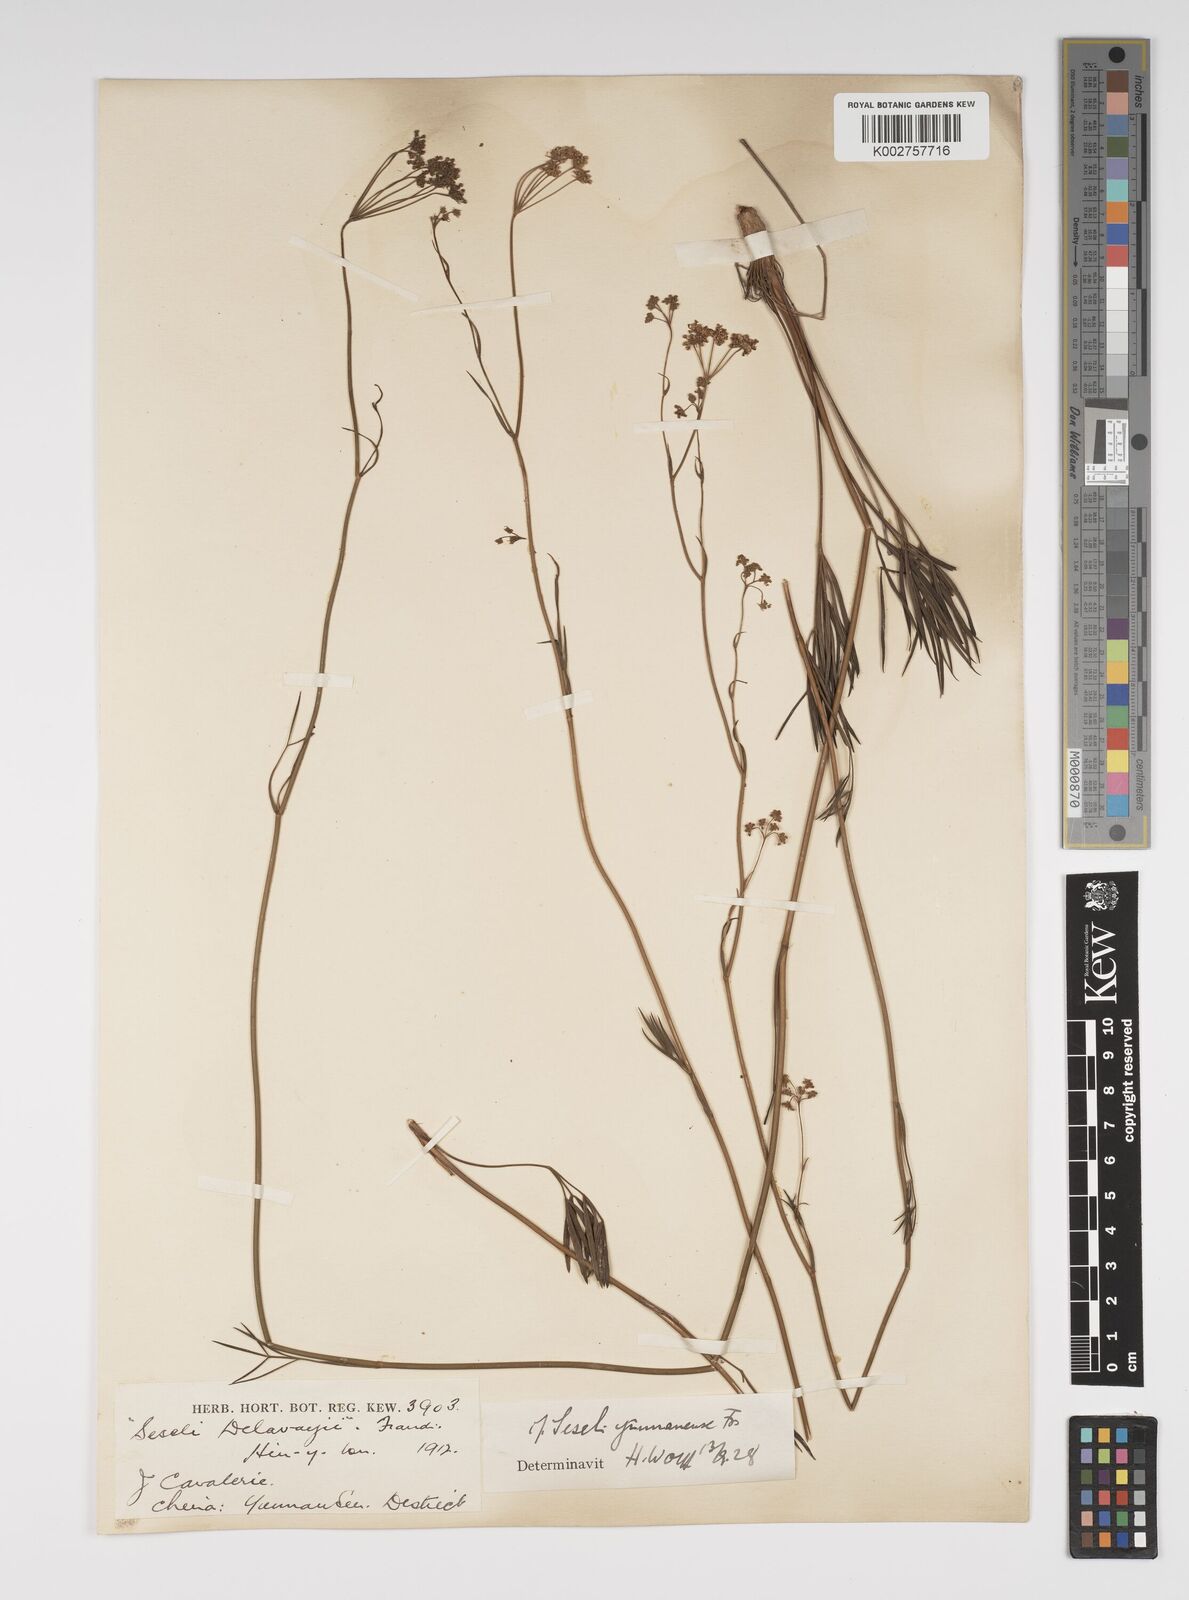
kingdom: Plantae
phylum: Tracheophyta
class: Magnoliopsida
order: Apiales
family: Apiaceae
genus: Seseli
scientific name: Seseli yunnanense
